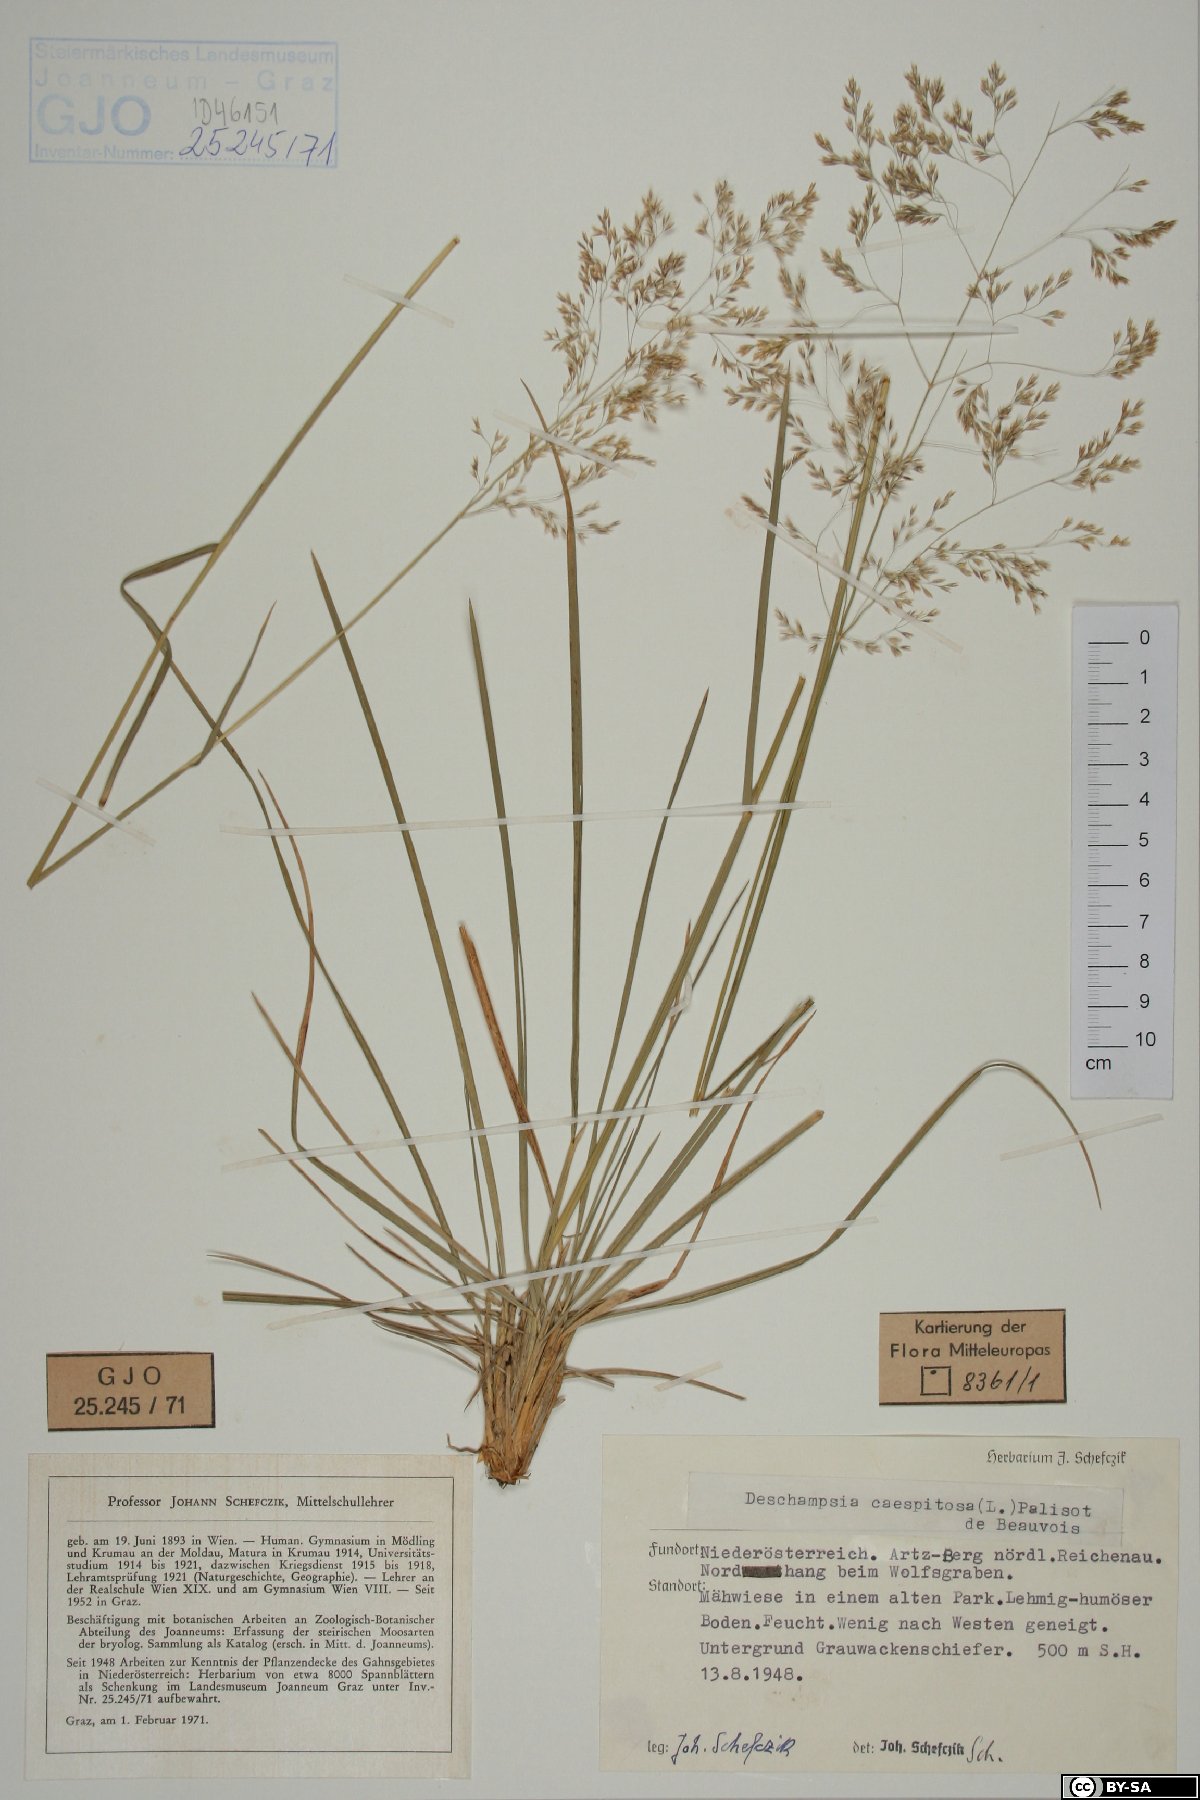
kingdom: Plantae
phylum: Tracheophyta
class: Liliopsida
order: Poales
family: Poaceae
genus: Deschampsia
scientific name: Deschampsia cespitosa
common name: Tufted hair-grass
